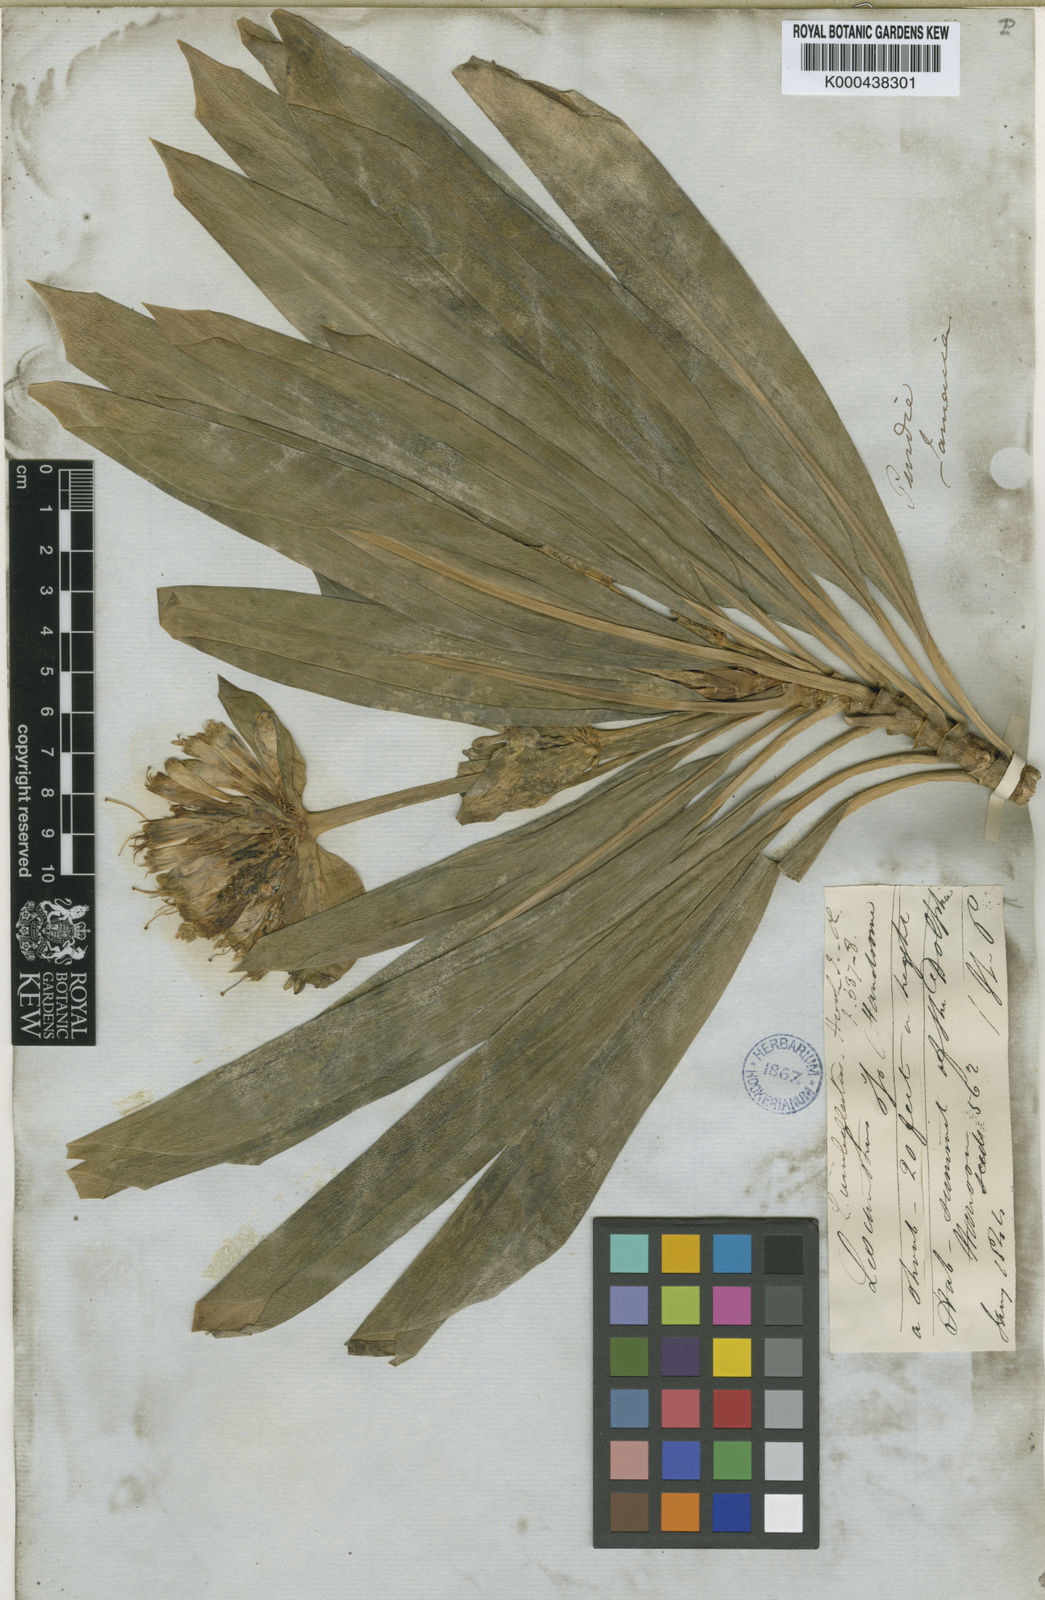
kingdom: Plantae
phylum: Tracheophyta
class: Magnoliopsida
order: Gentianales
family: Gentianaceae
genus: Lisianthus
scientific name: Lisianthus umbellatus
